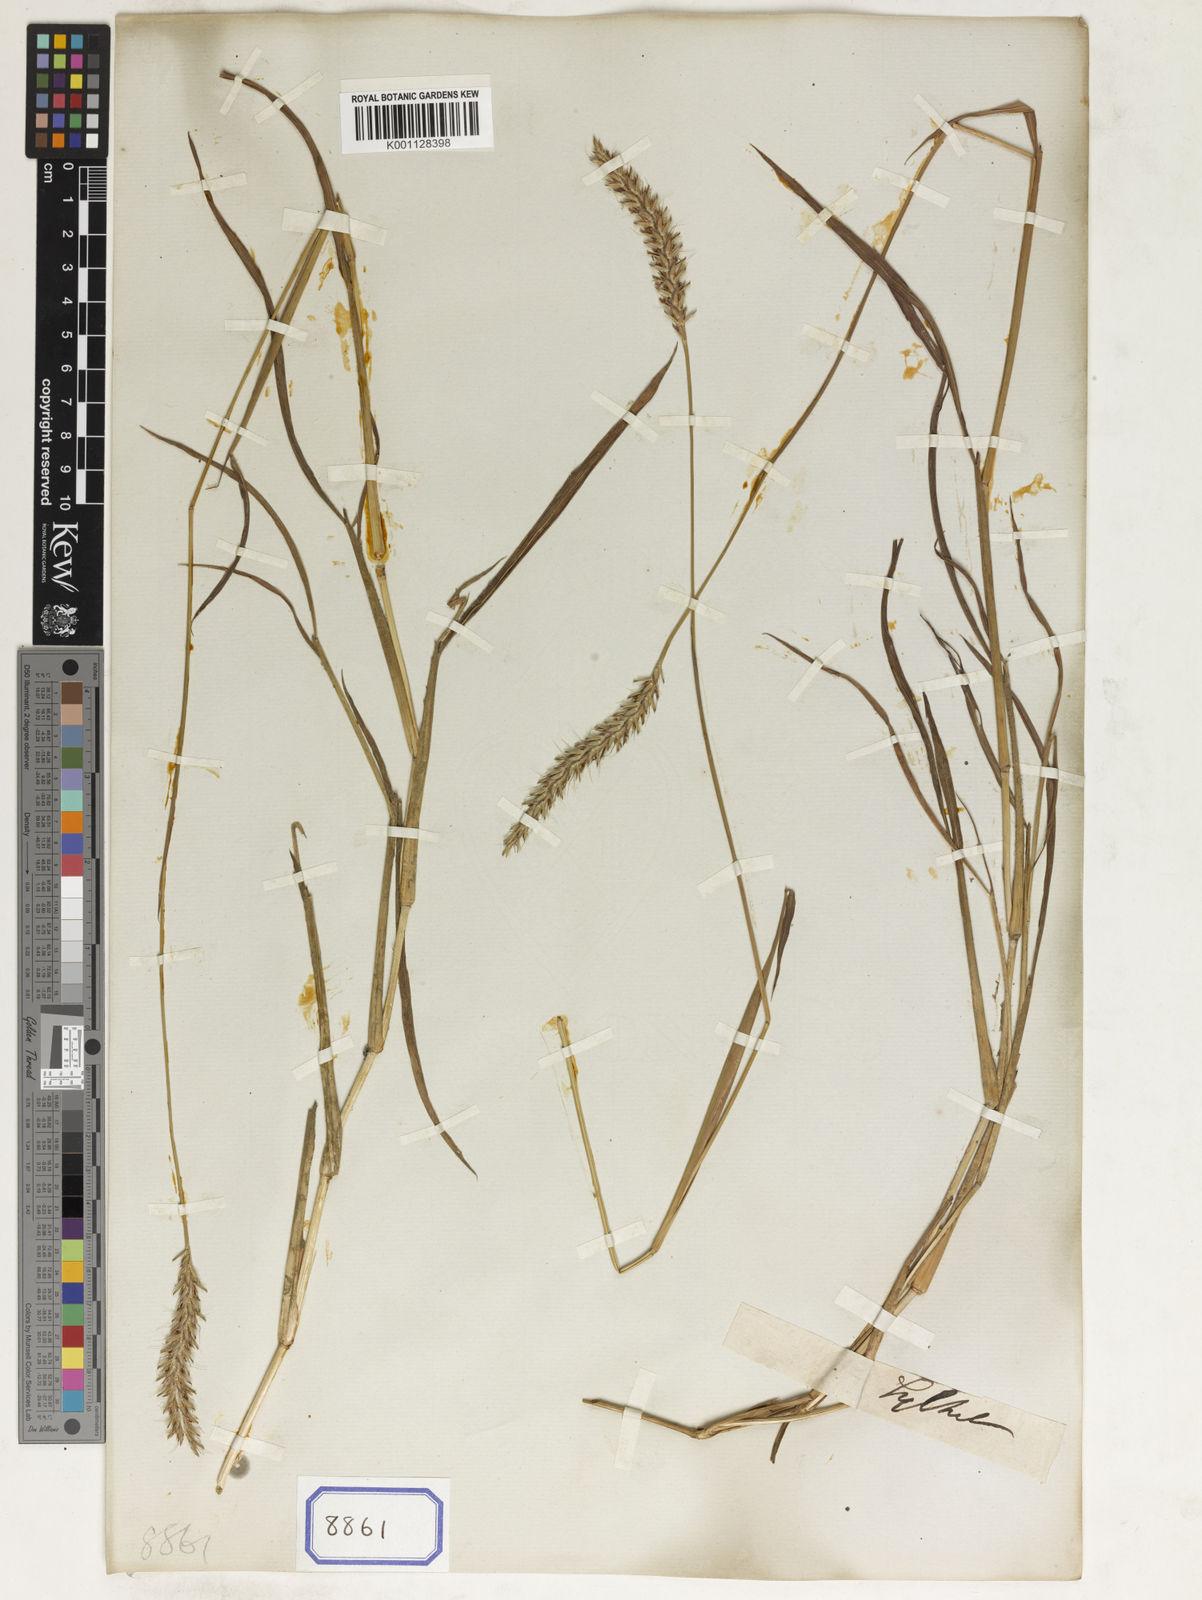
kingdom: Plantae
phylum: Tracheophyta
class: Liliopsida
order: Poales
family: Poaceae
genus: Spodiopogon
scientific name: Spodiopogon
